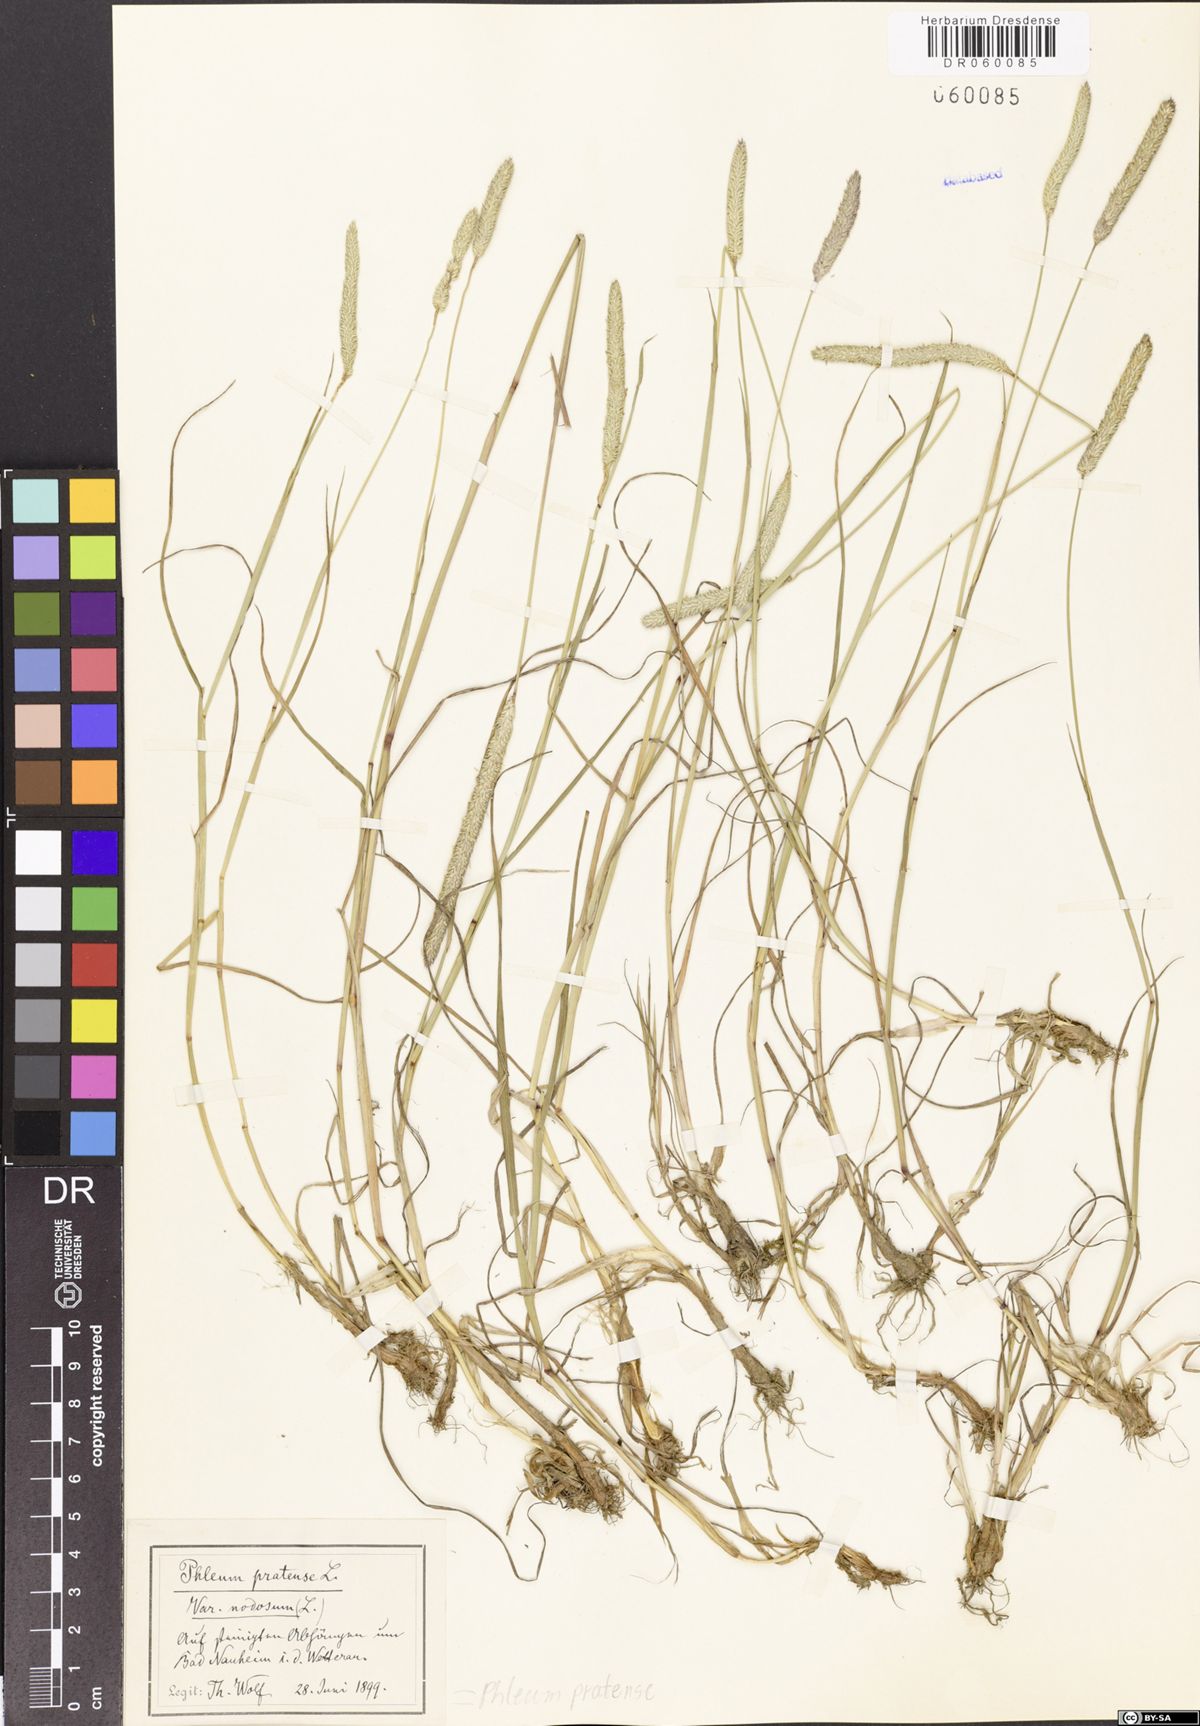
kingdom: Plantae
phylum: Tracheophyta
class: Liliopsida
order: Poales
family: Poaceae
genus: Phleum
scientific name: Phleum pratense
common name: Timothy grass
